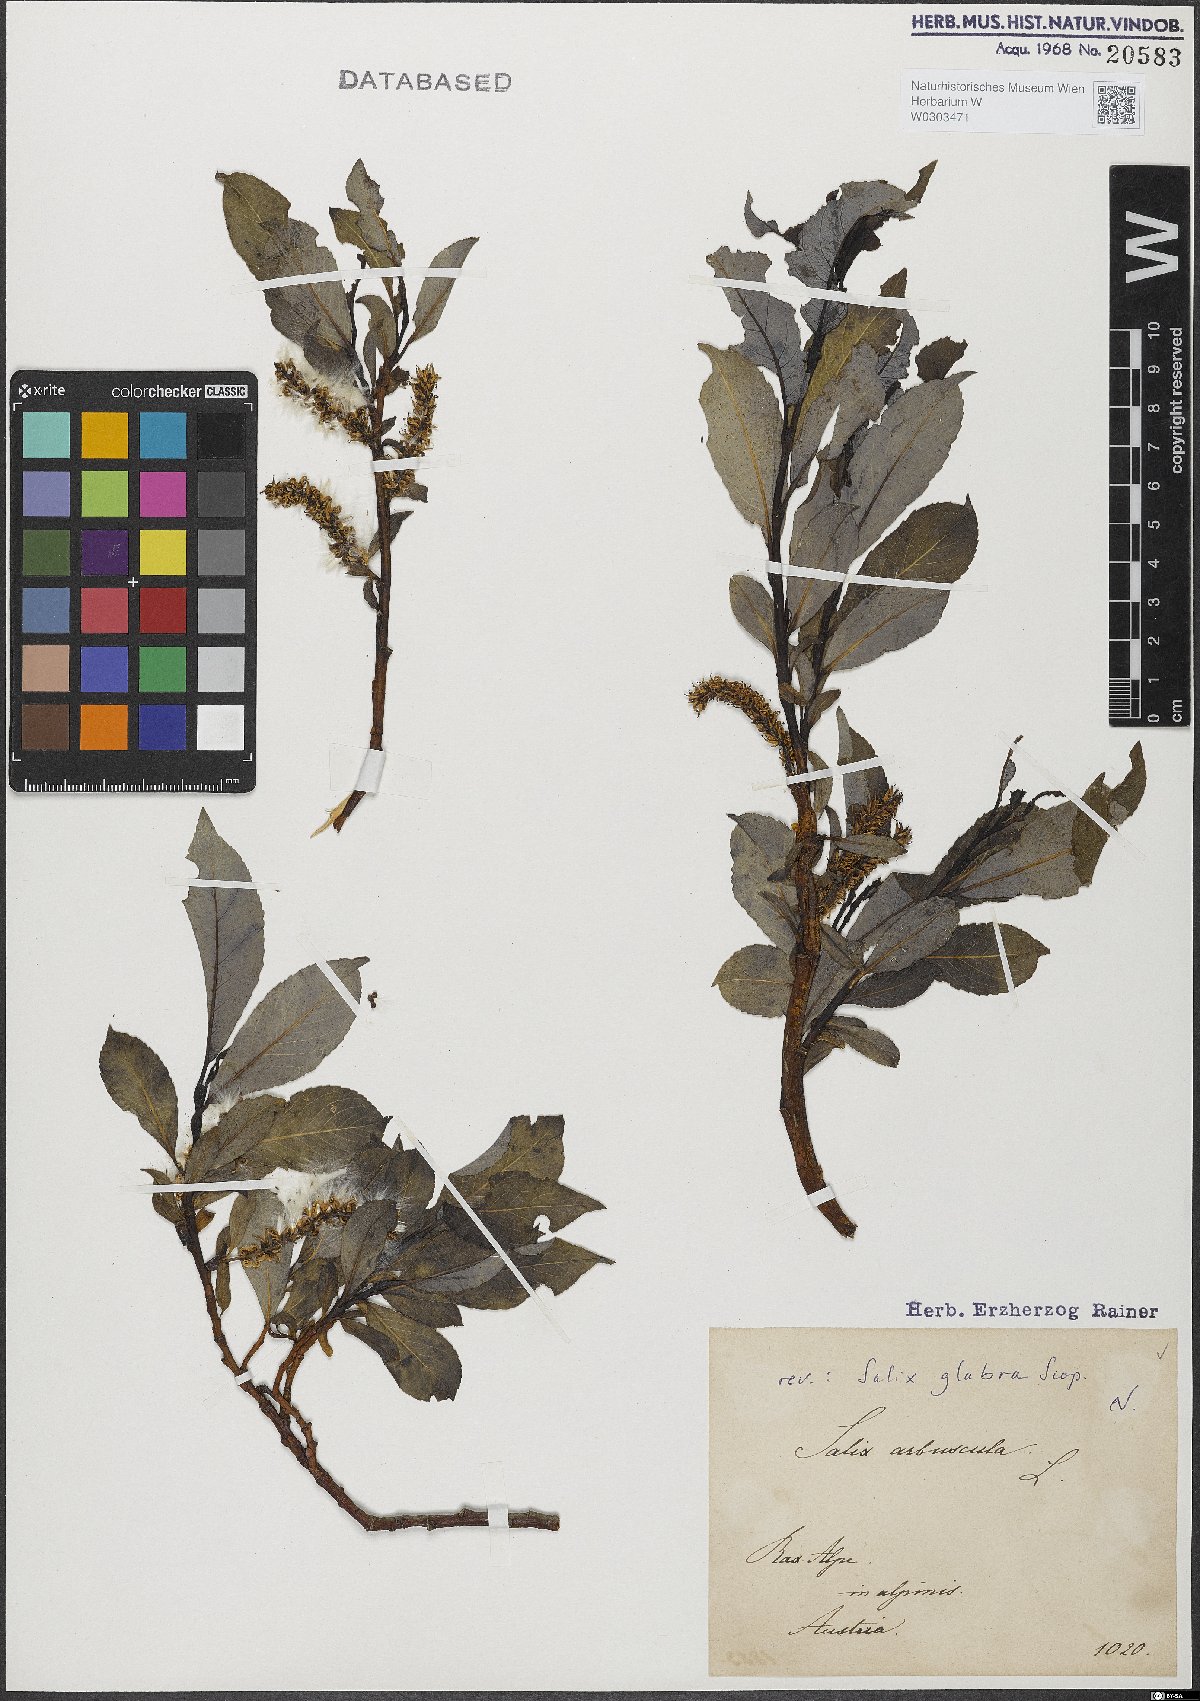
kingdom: Plantae
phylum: Tracheophyta
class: Magnoliopsida
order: Malpighiales
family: Salicaceae
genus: Salix
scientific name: Salix glabra
